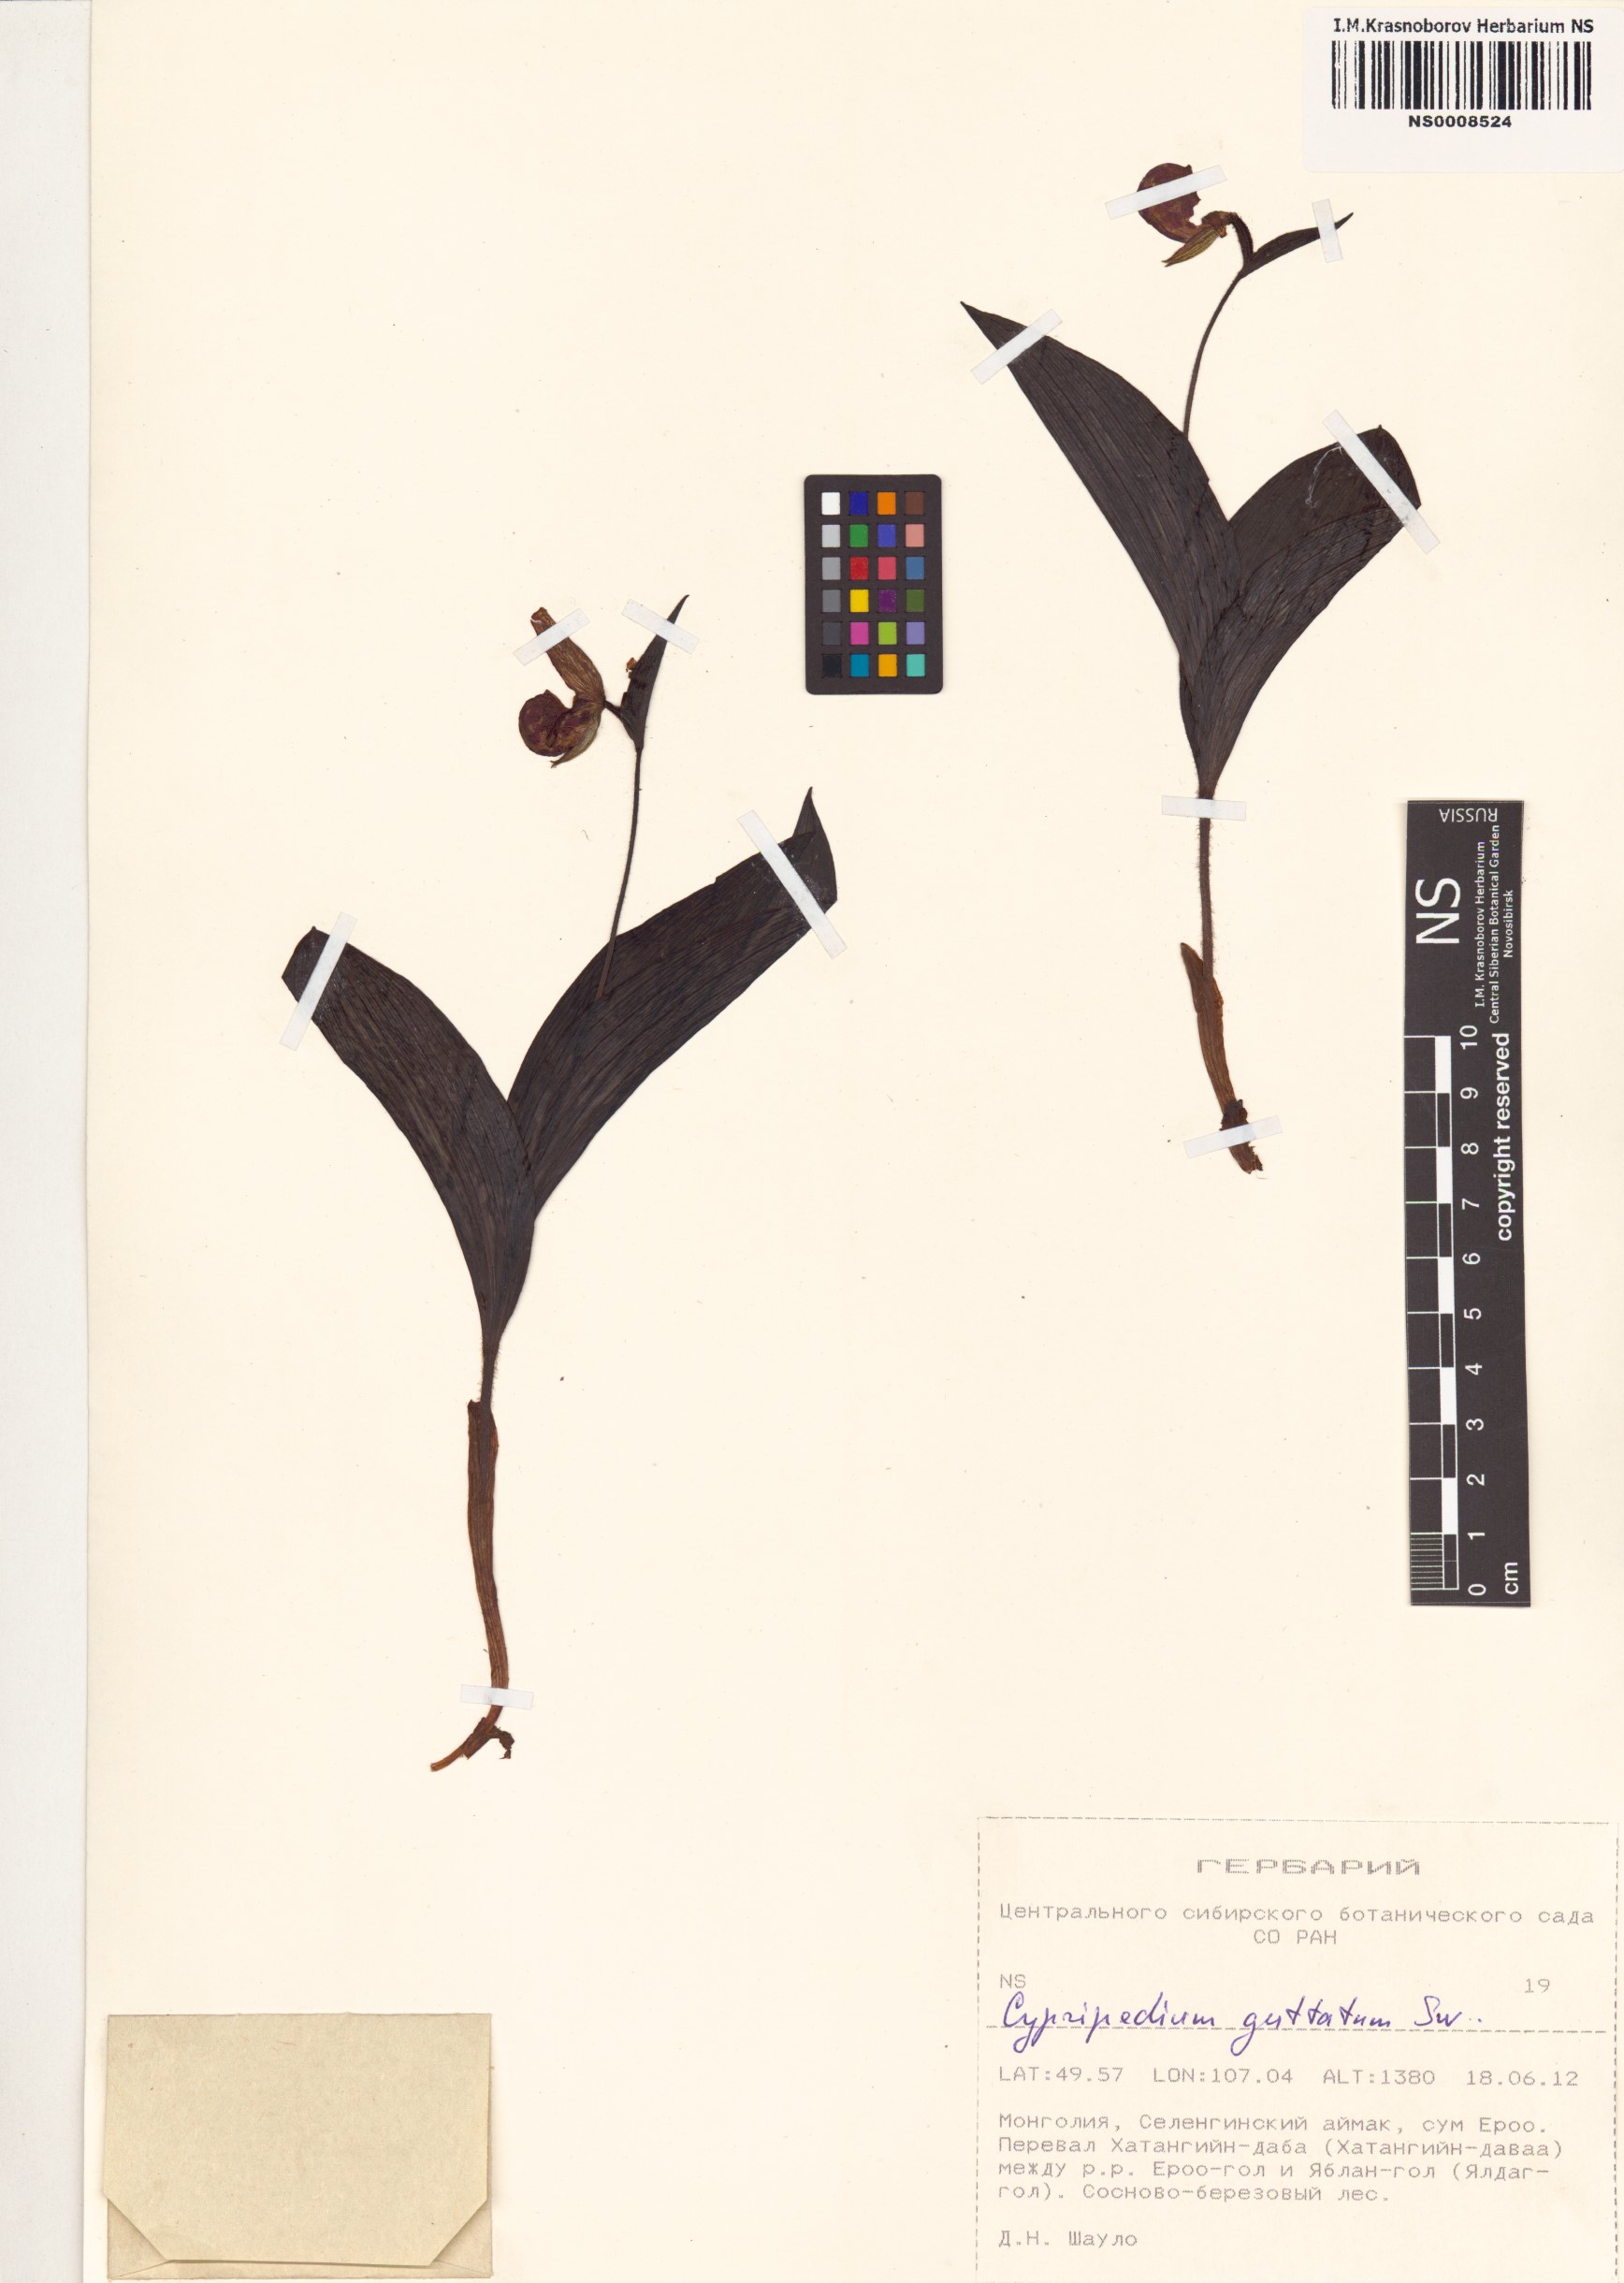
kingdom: Plantae
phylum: Tracheophyta
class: Liliopsida
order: Asparagales
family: Orchidaceae
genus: Cypripedium
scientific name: Cypripedium guttatum
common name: Pink lady slipper
